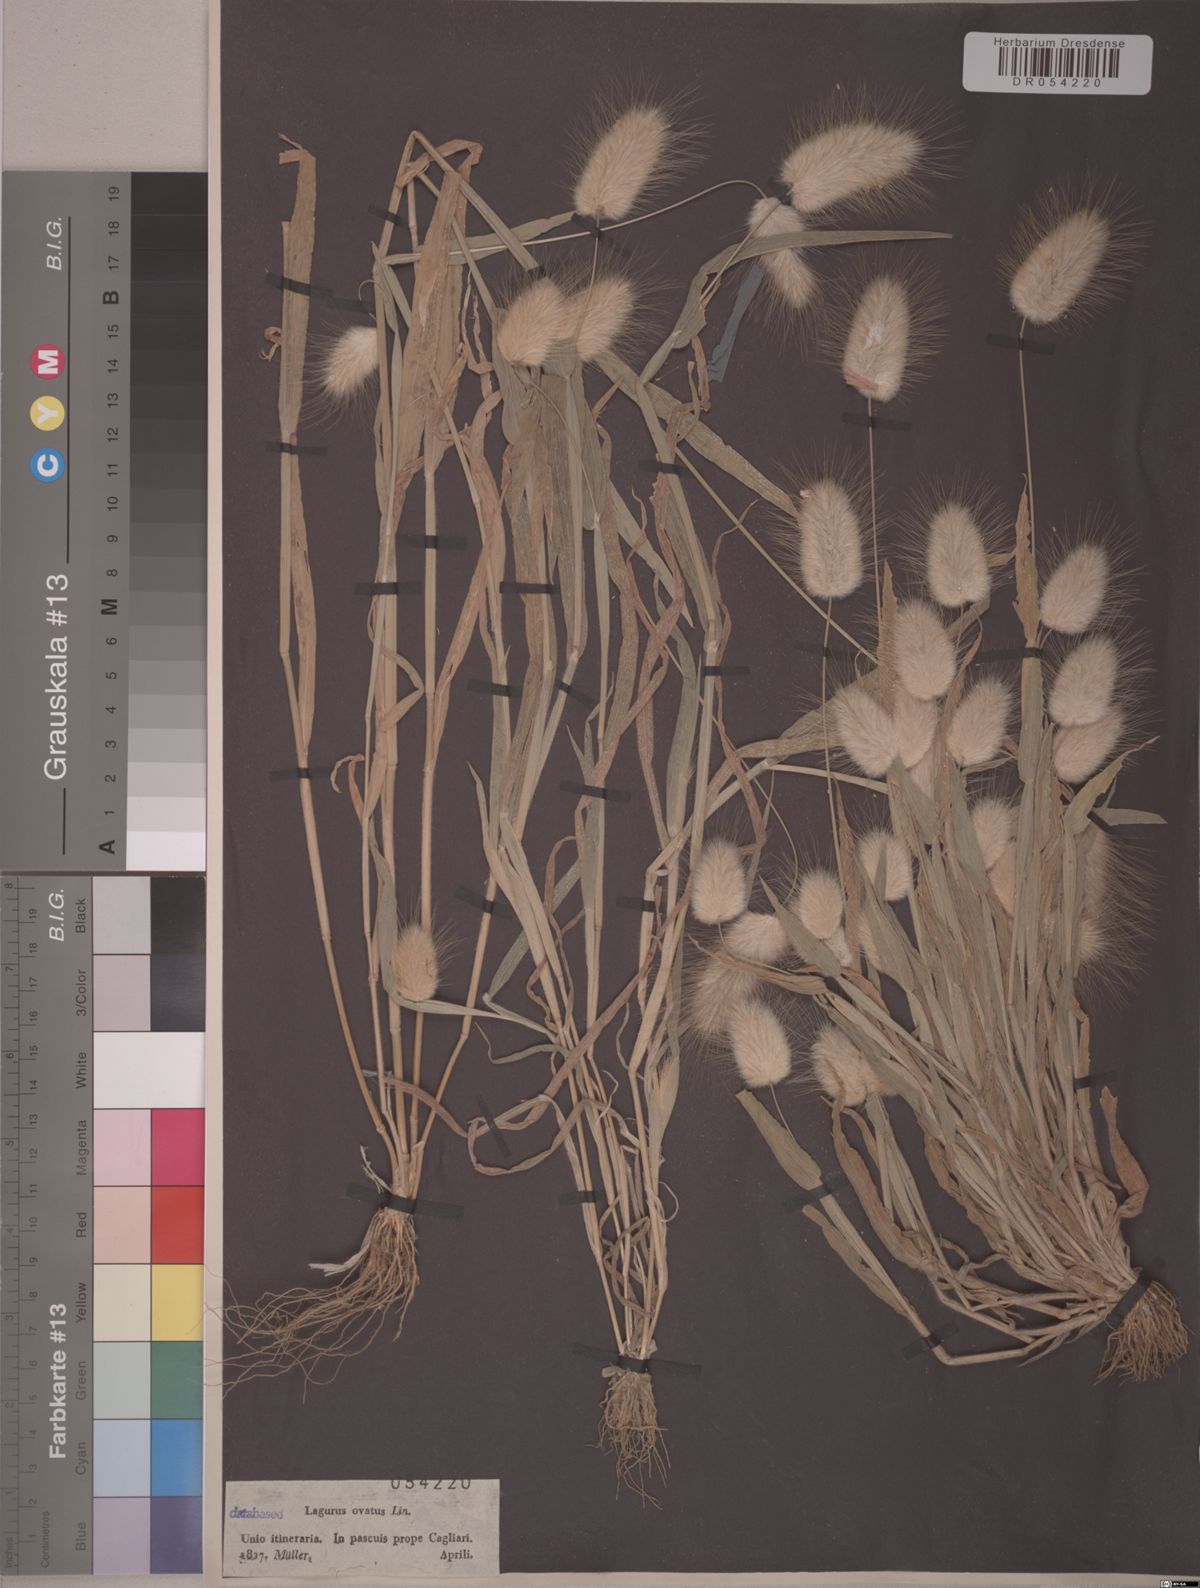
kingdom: Plantae
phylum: Tracheophyta
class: Liliopsida
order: Poales
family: Poaceae
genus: Lagurus
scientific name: Lagurus ovatus
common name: Hare's-tail
